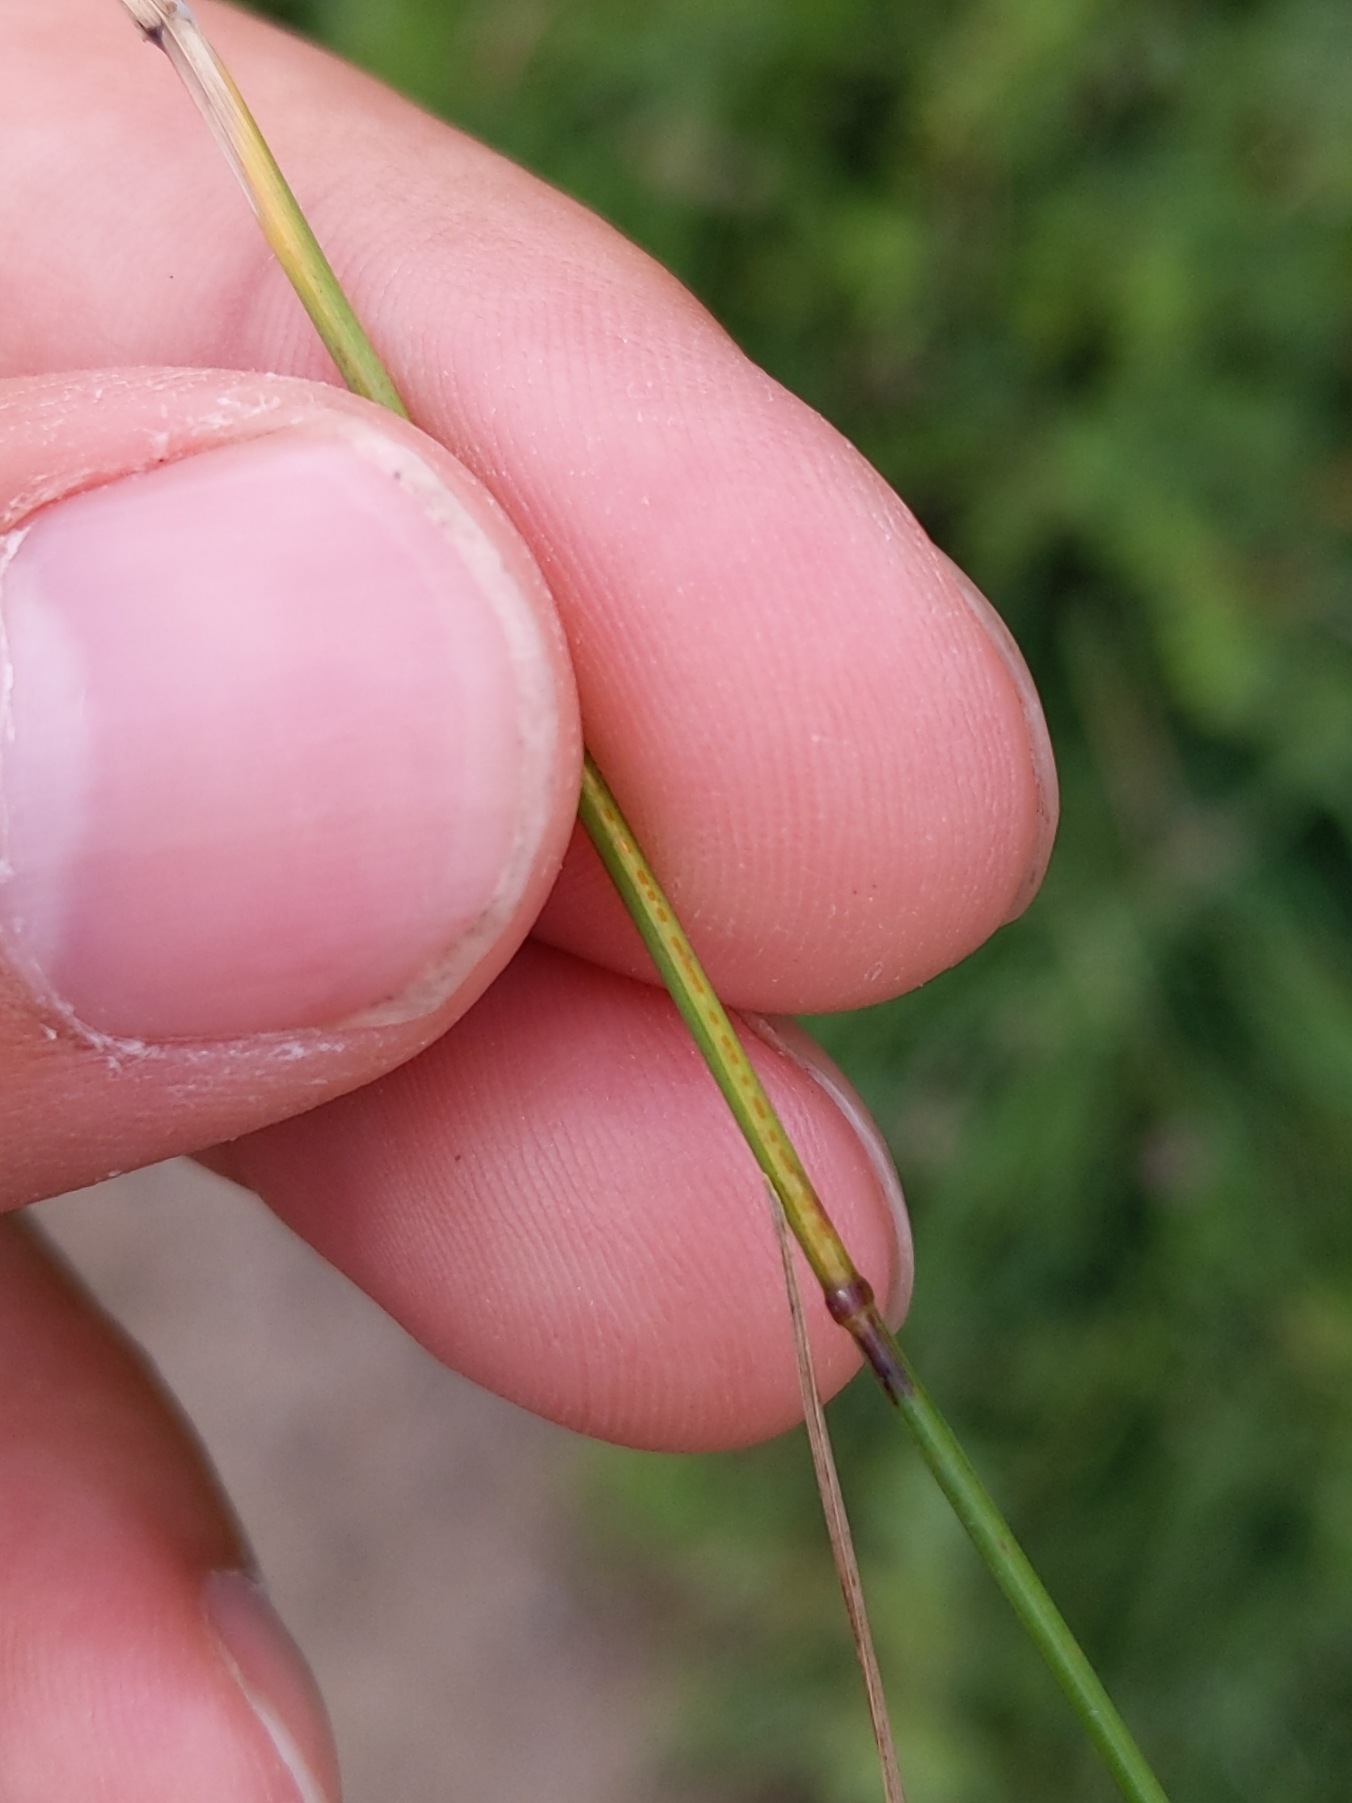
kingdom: Plantae
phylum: Tracheophyta
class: Liliopsida
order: Poales
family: Poaceae
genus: Poa
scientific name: Poa compressa
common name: Fladstrået rapgræs
